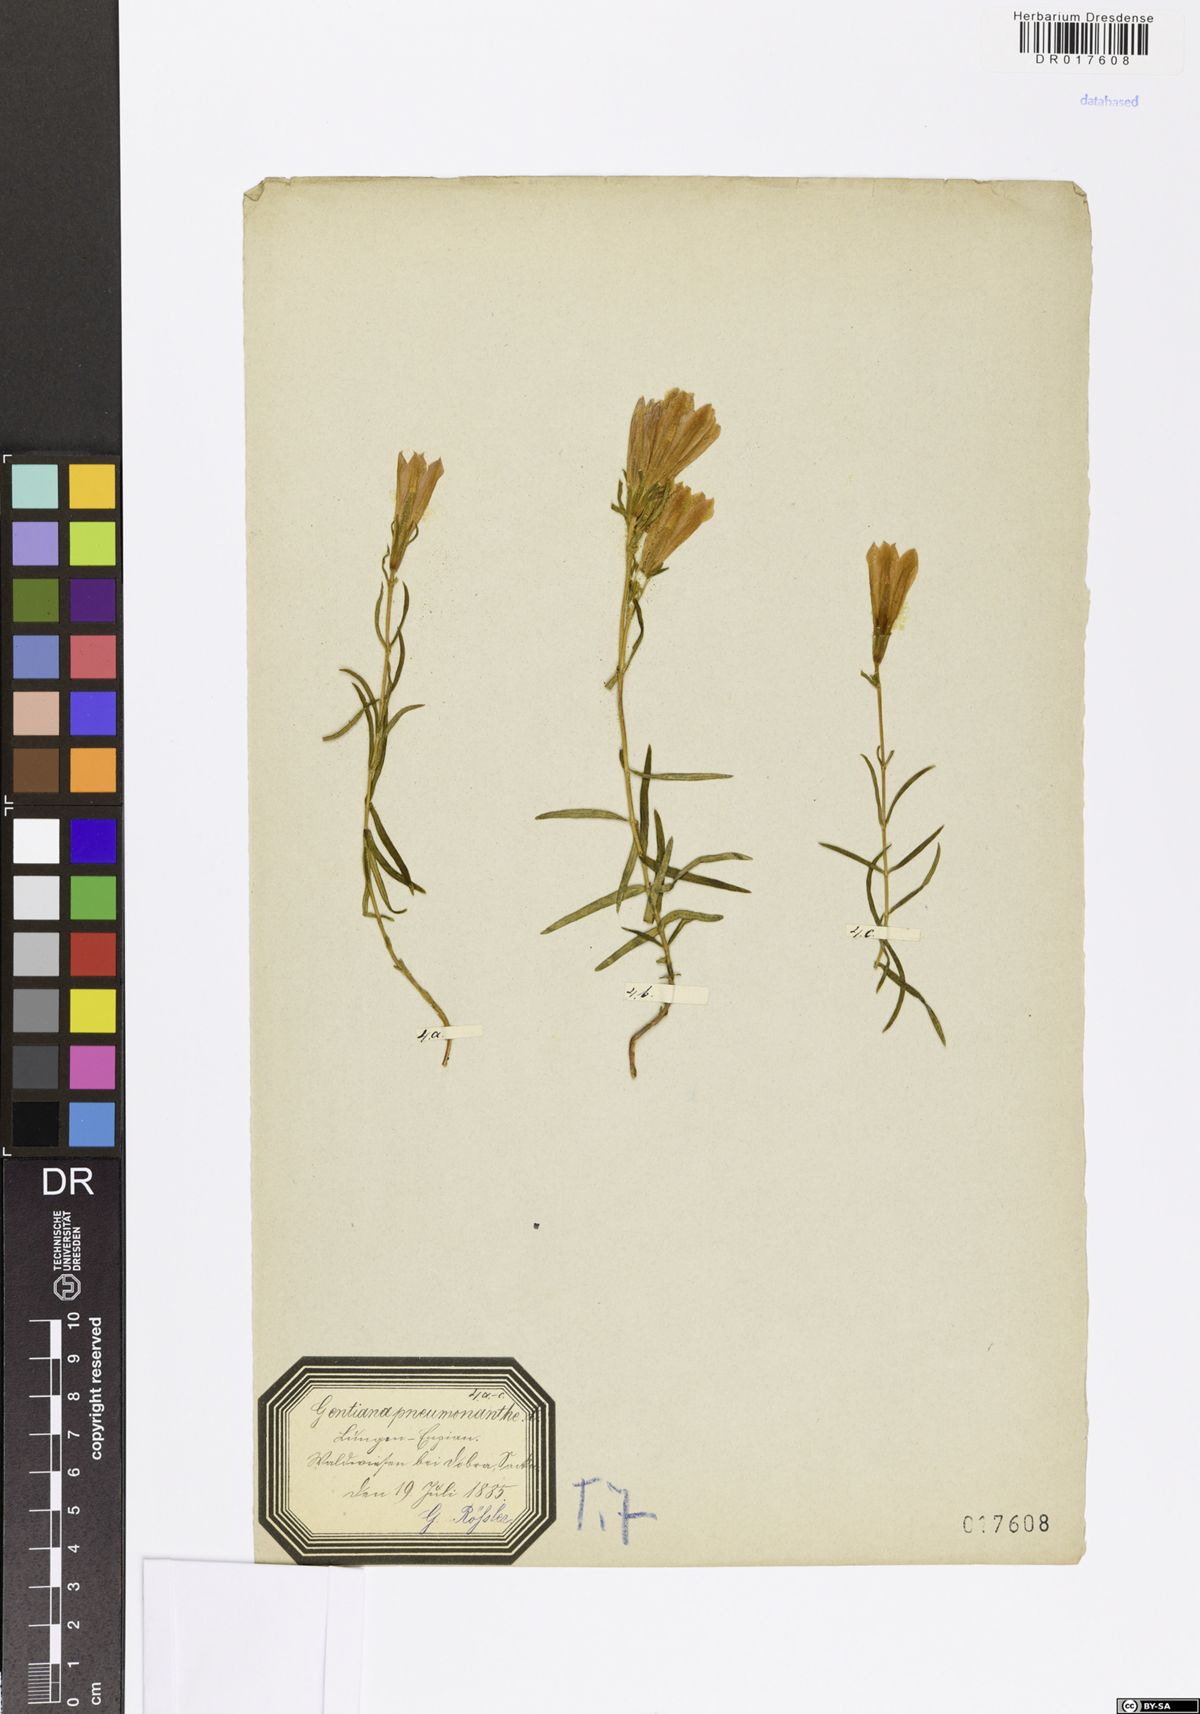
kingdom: Plantae
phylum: Tracheophyta
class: Magnoliopsida
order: Gentianales
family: Gentianaceae
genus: Gentiana
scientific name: Gentiana pneumonanthe
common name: Marsh gentian
